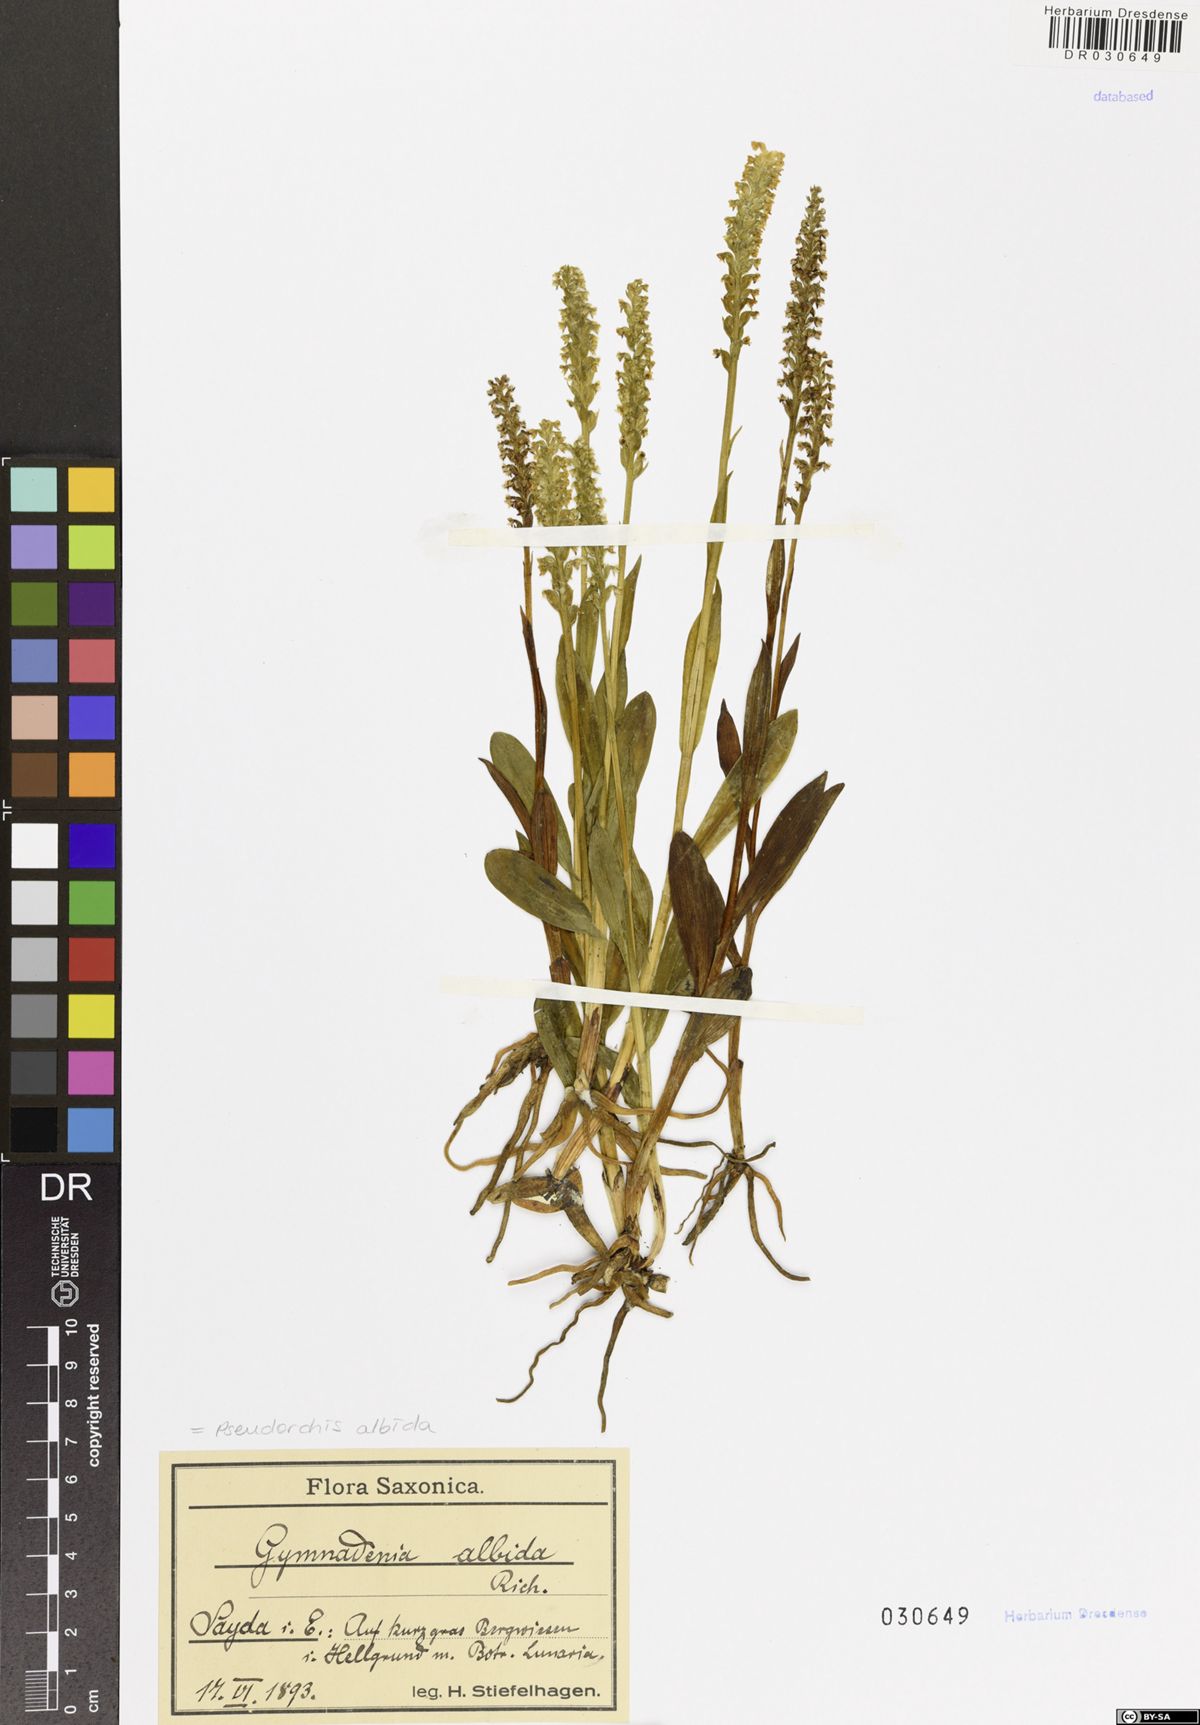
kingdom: Plantae
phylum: Tracheophyta
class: Liliopsida
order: Asparagales
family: Orchidaceae
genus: Pseudorchis
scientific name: Pseudorchis albida
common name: Small-white orchid
